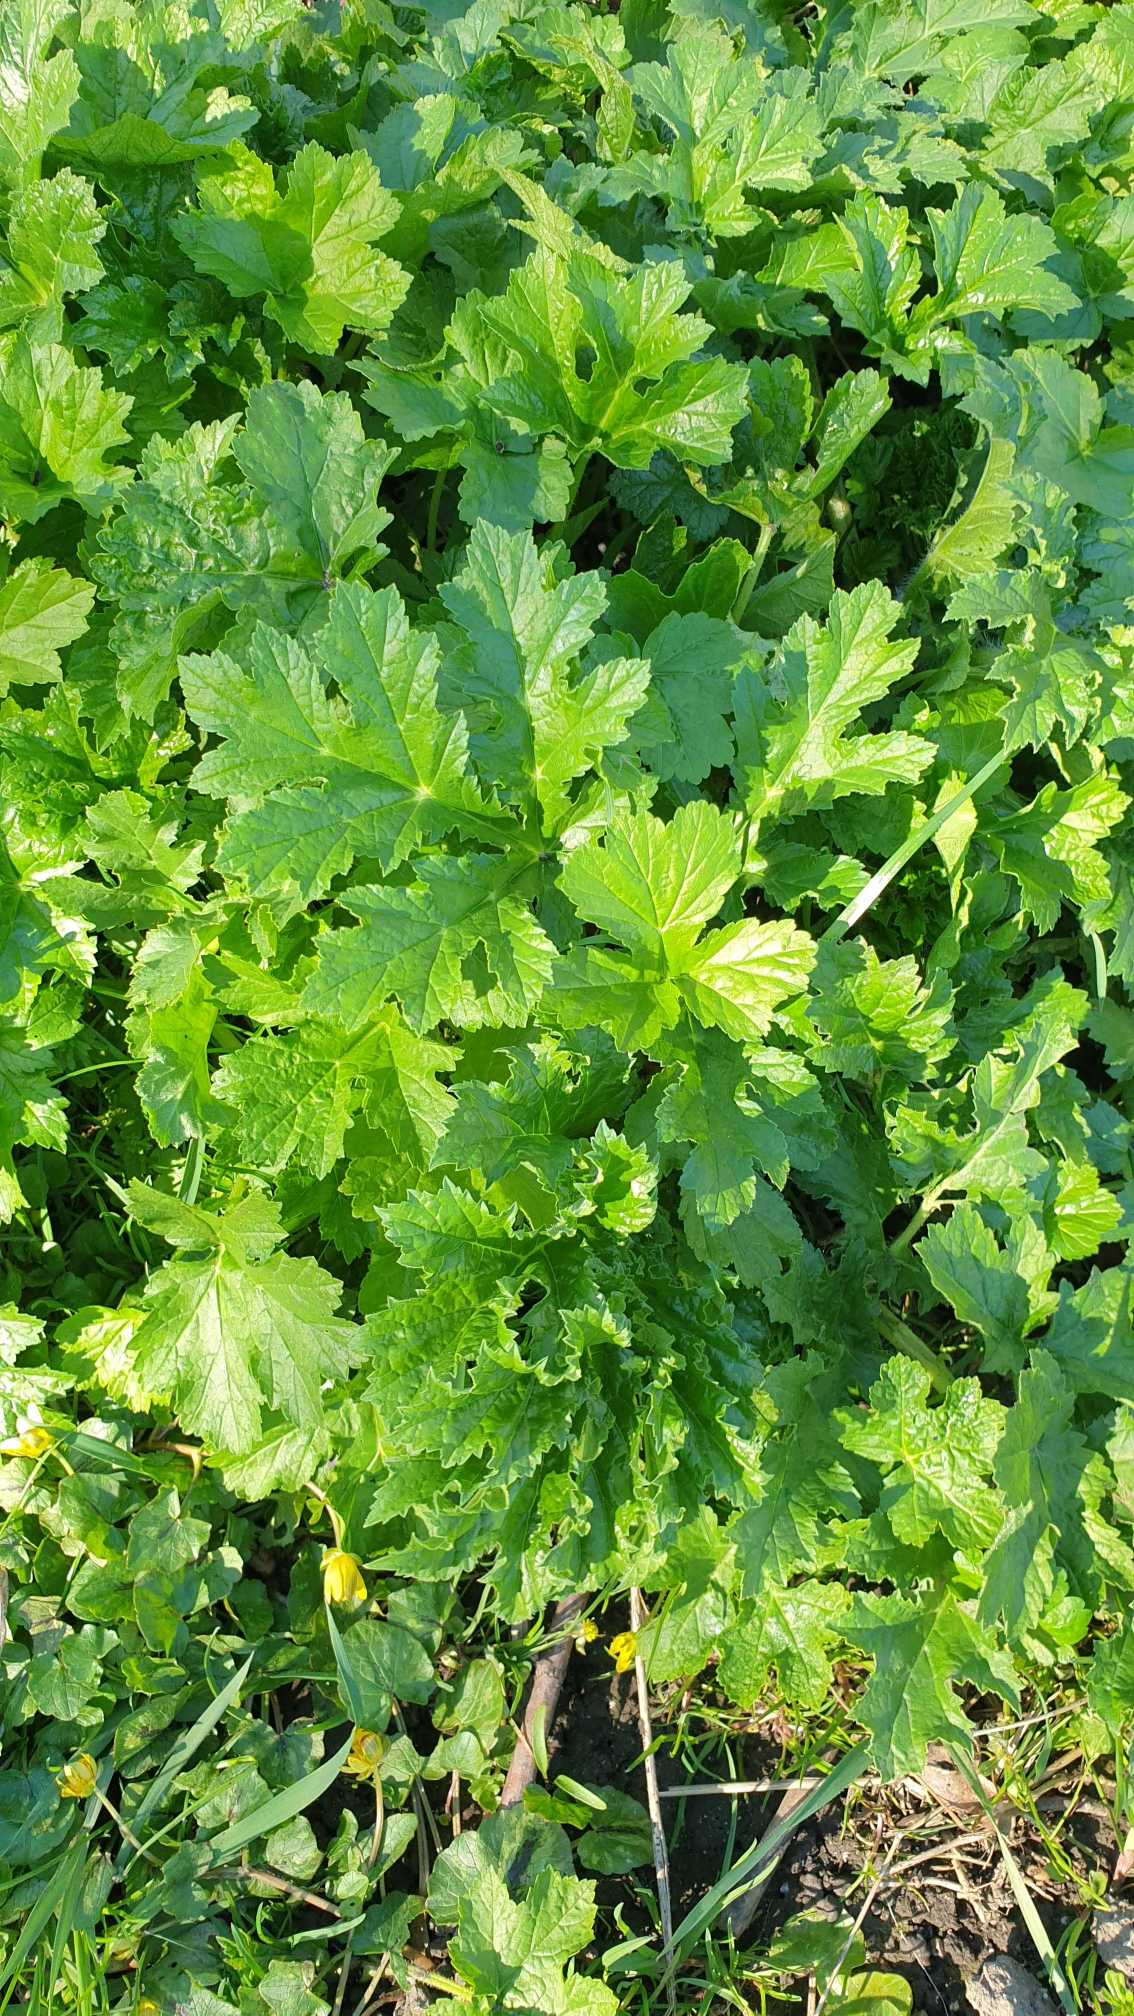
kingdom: Plantae
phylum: Tracheophyta
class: Magnoliopsida
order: Apiales
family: Apiaceae
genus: Heracleum
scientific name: Heracleum mantegazzianum
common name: Kæmpe-bjørneklo
